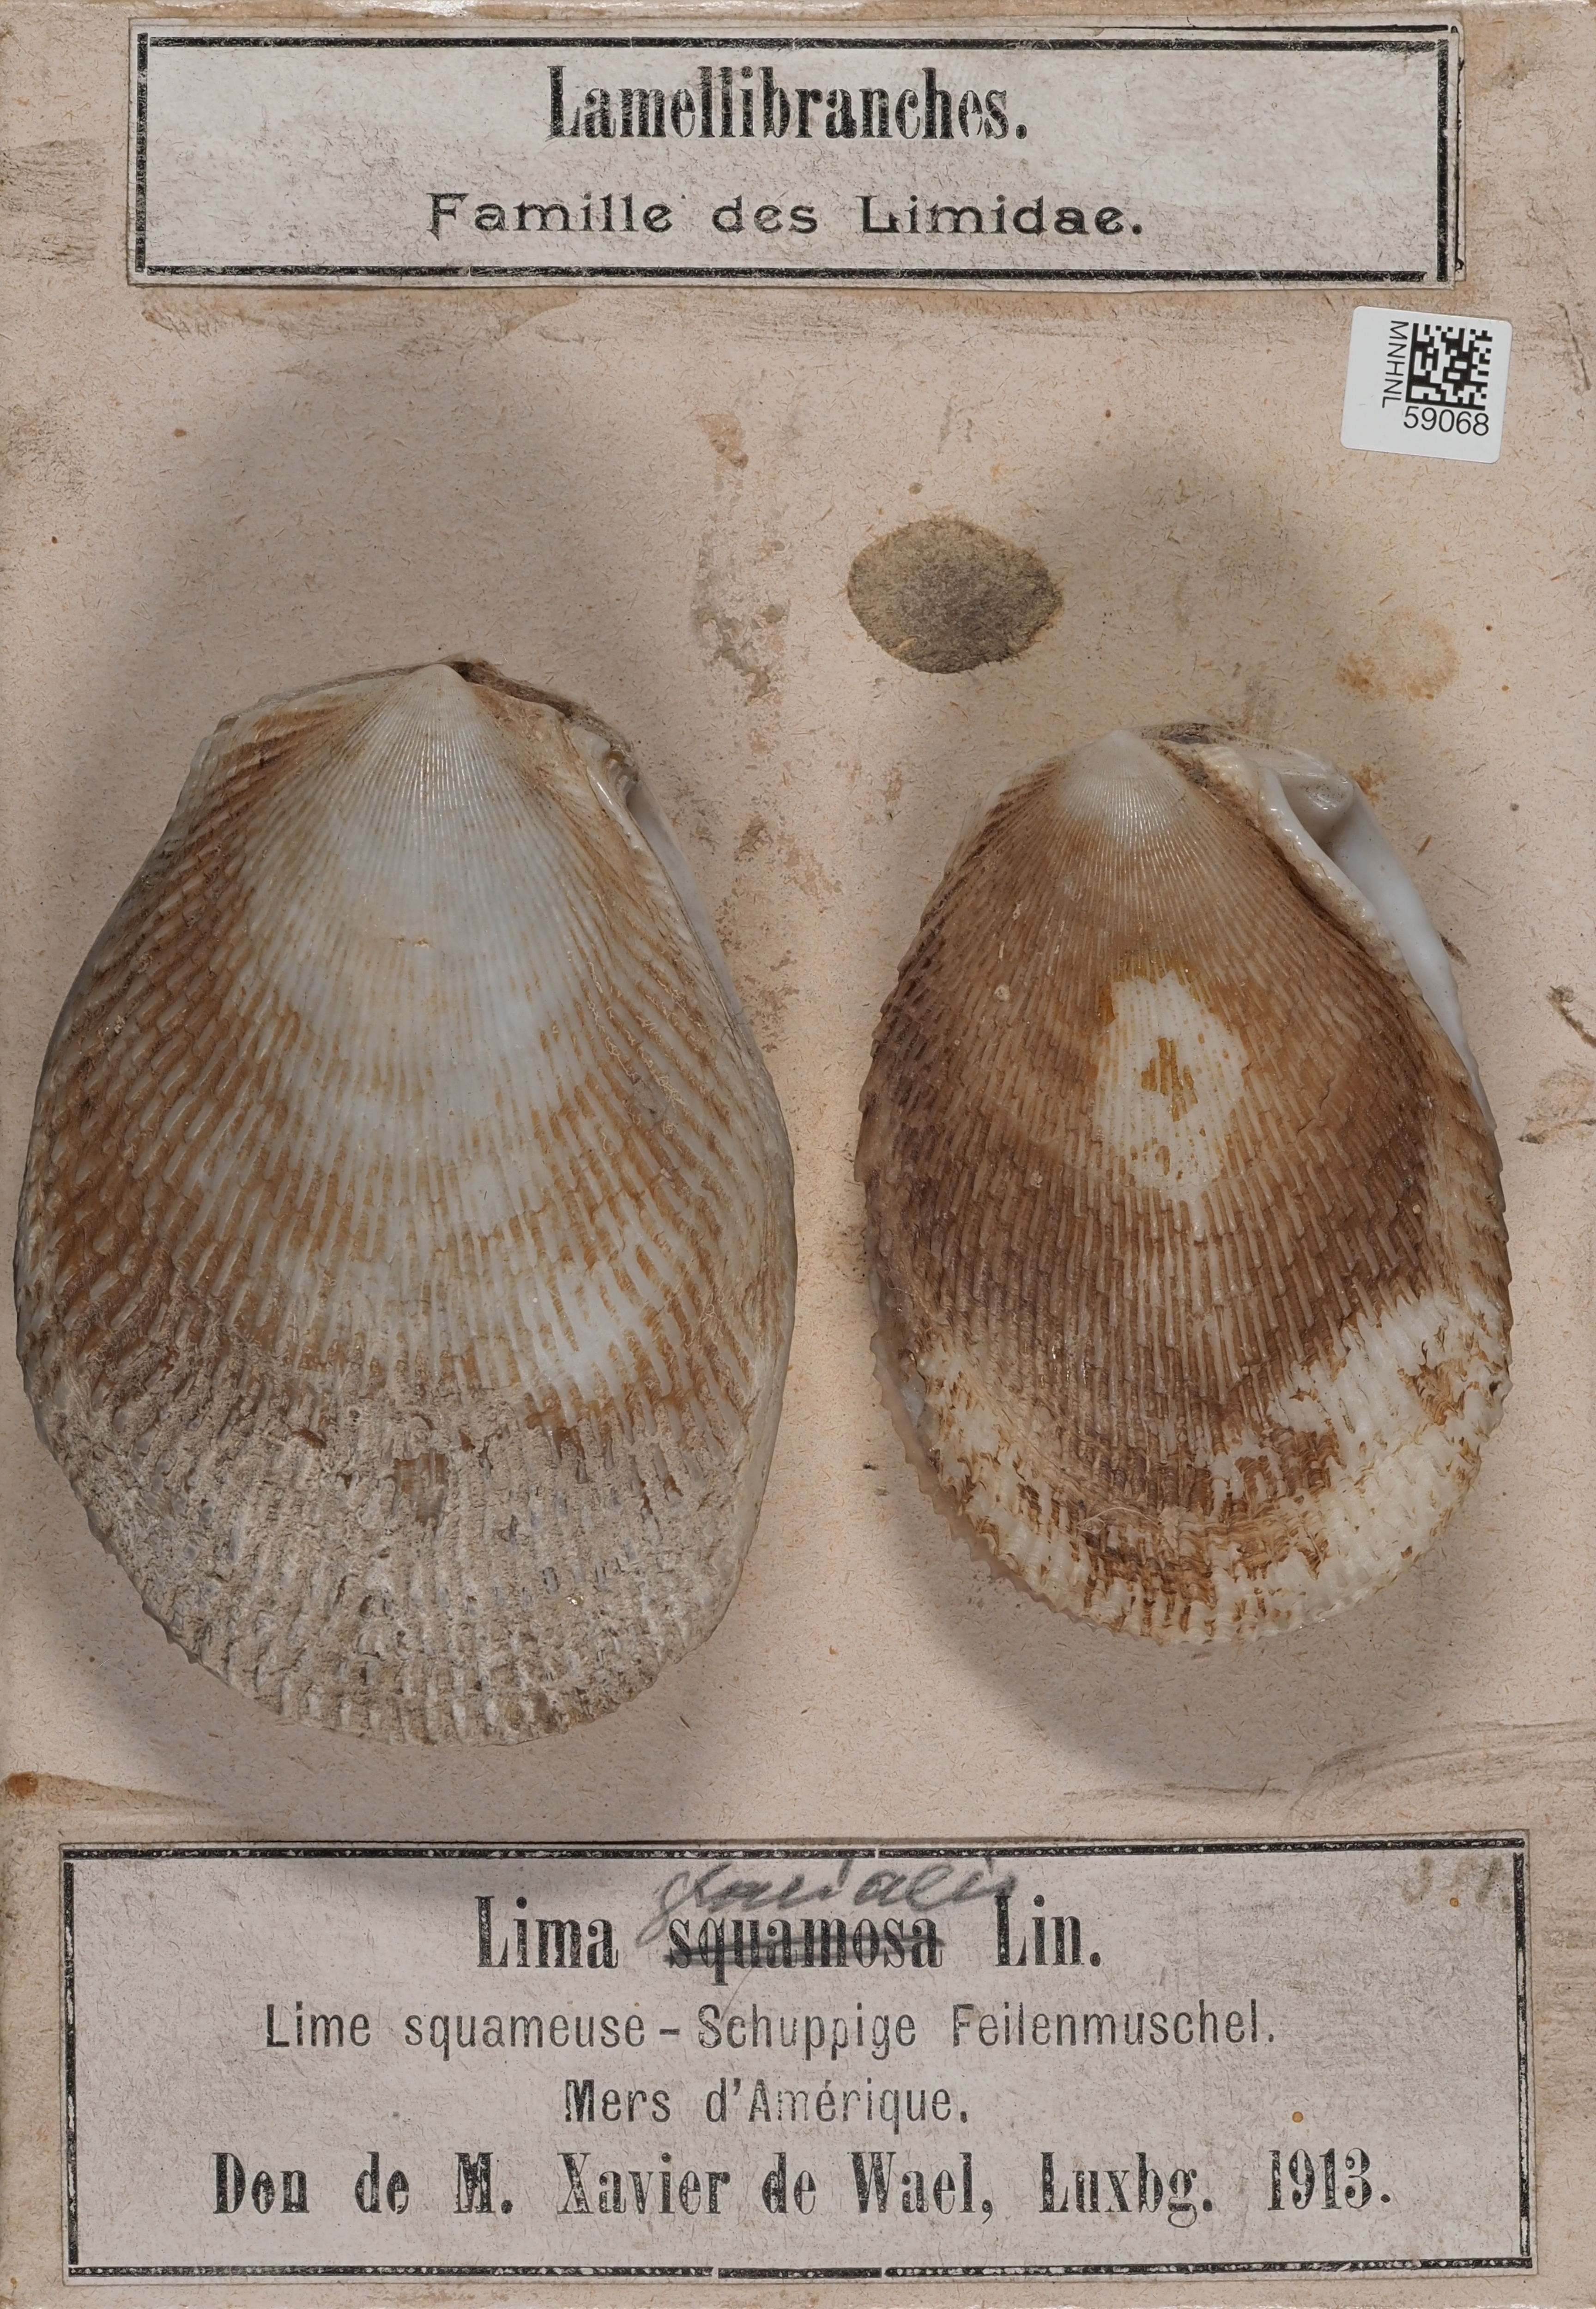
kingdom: Animalia
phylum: Mollusca
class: Bivalvia
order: Limida
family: Limidae
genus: Ctenoides
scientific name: Ctenoides scaber
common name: Rough fileclam
